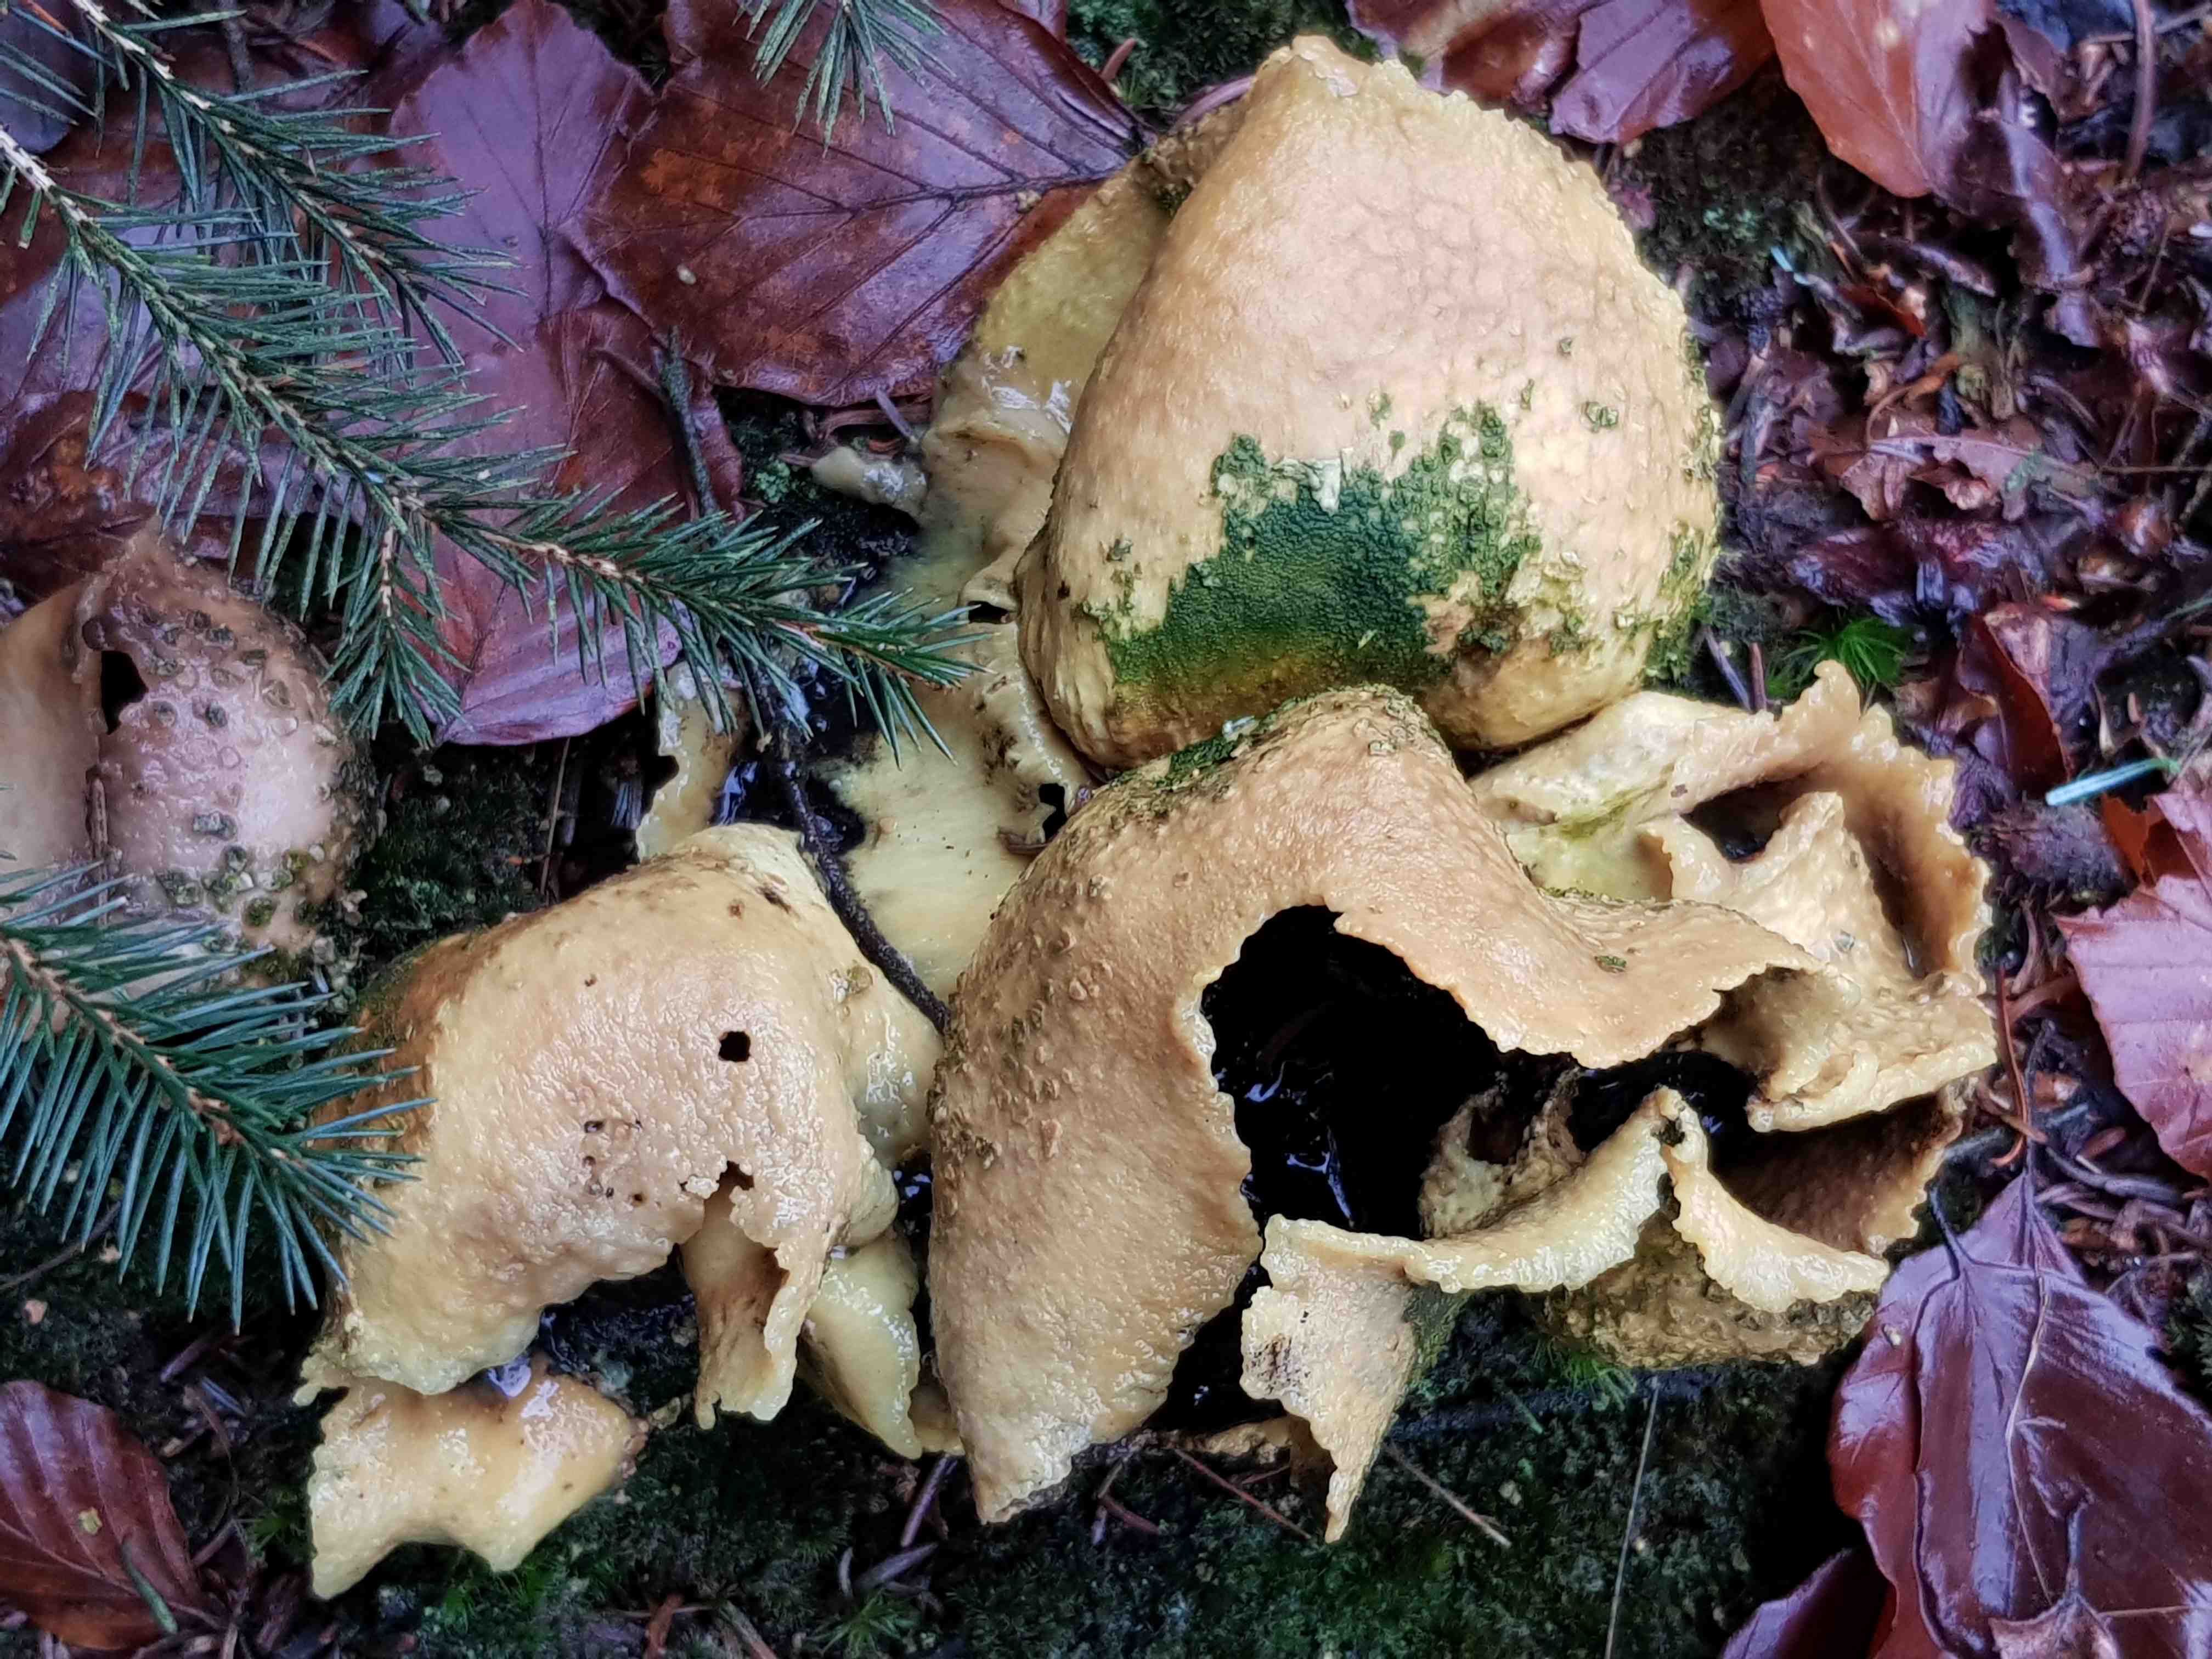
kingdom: Fungi
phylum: Basidiomycota
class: Agaricomycetes
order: Boletales
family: Sclerodermataceae
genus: Scleroderma
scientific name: Scleroderma citrinum
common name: almindelig bruskbold
